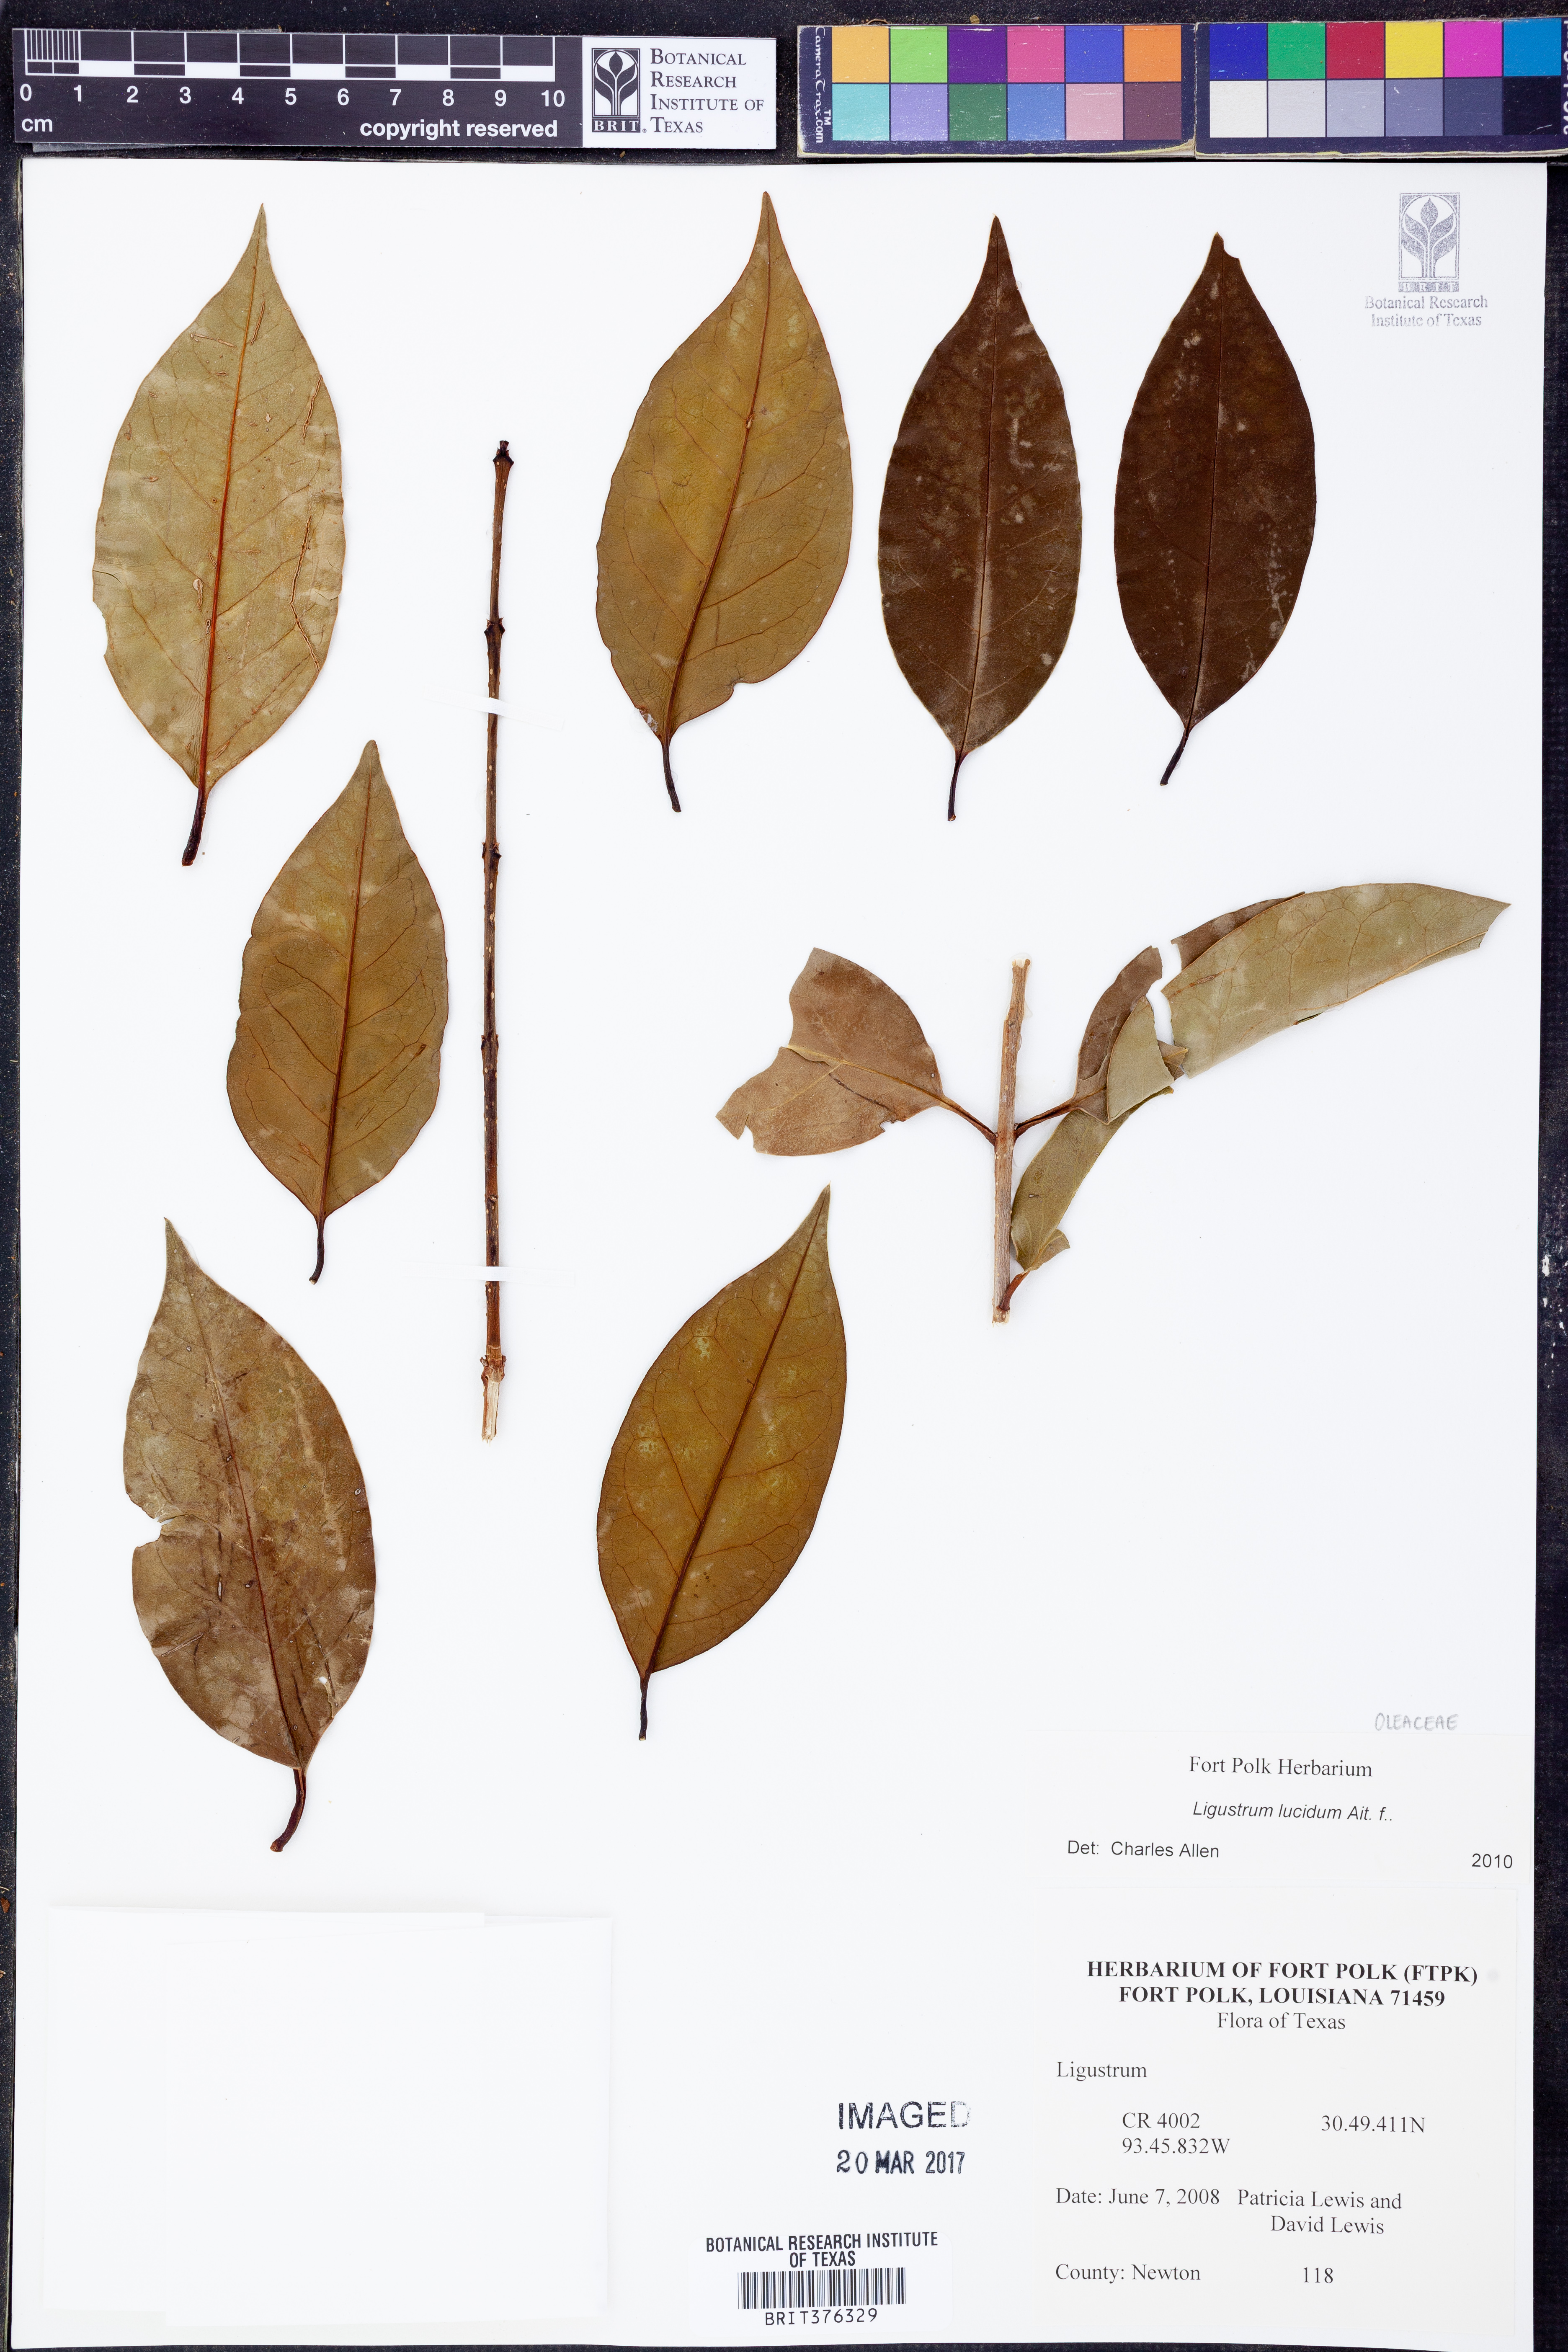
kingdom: Plantae
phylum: Tracheophyta
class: Magnoliopsida
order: Lamiales
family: Oleaceae
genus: Ligustrum
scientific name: Ligustrum lucidum
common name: Glossy privet
